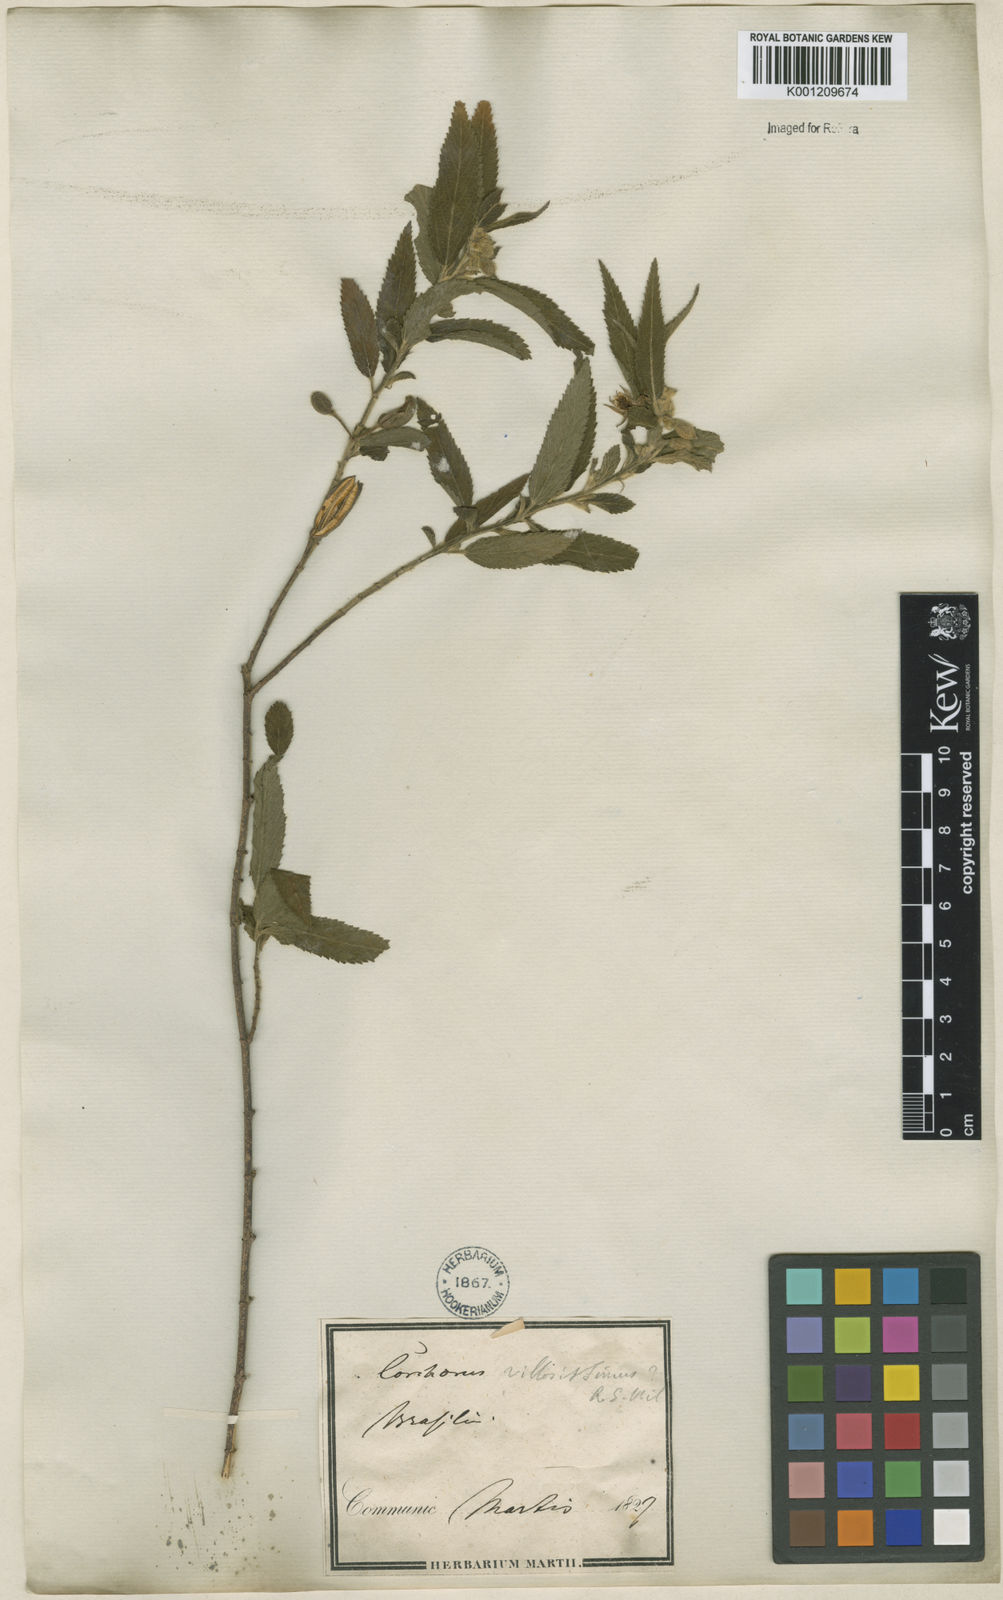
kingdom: Plantae
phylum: Tracheophyta
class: Magnoliopsida
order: Malvales
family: Malvaceae
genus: Corchorus
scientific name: Corchorus hirtus
